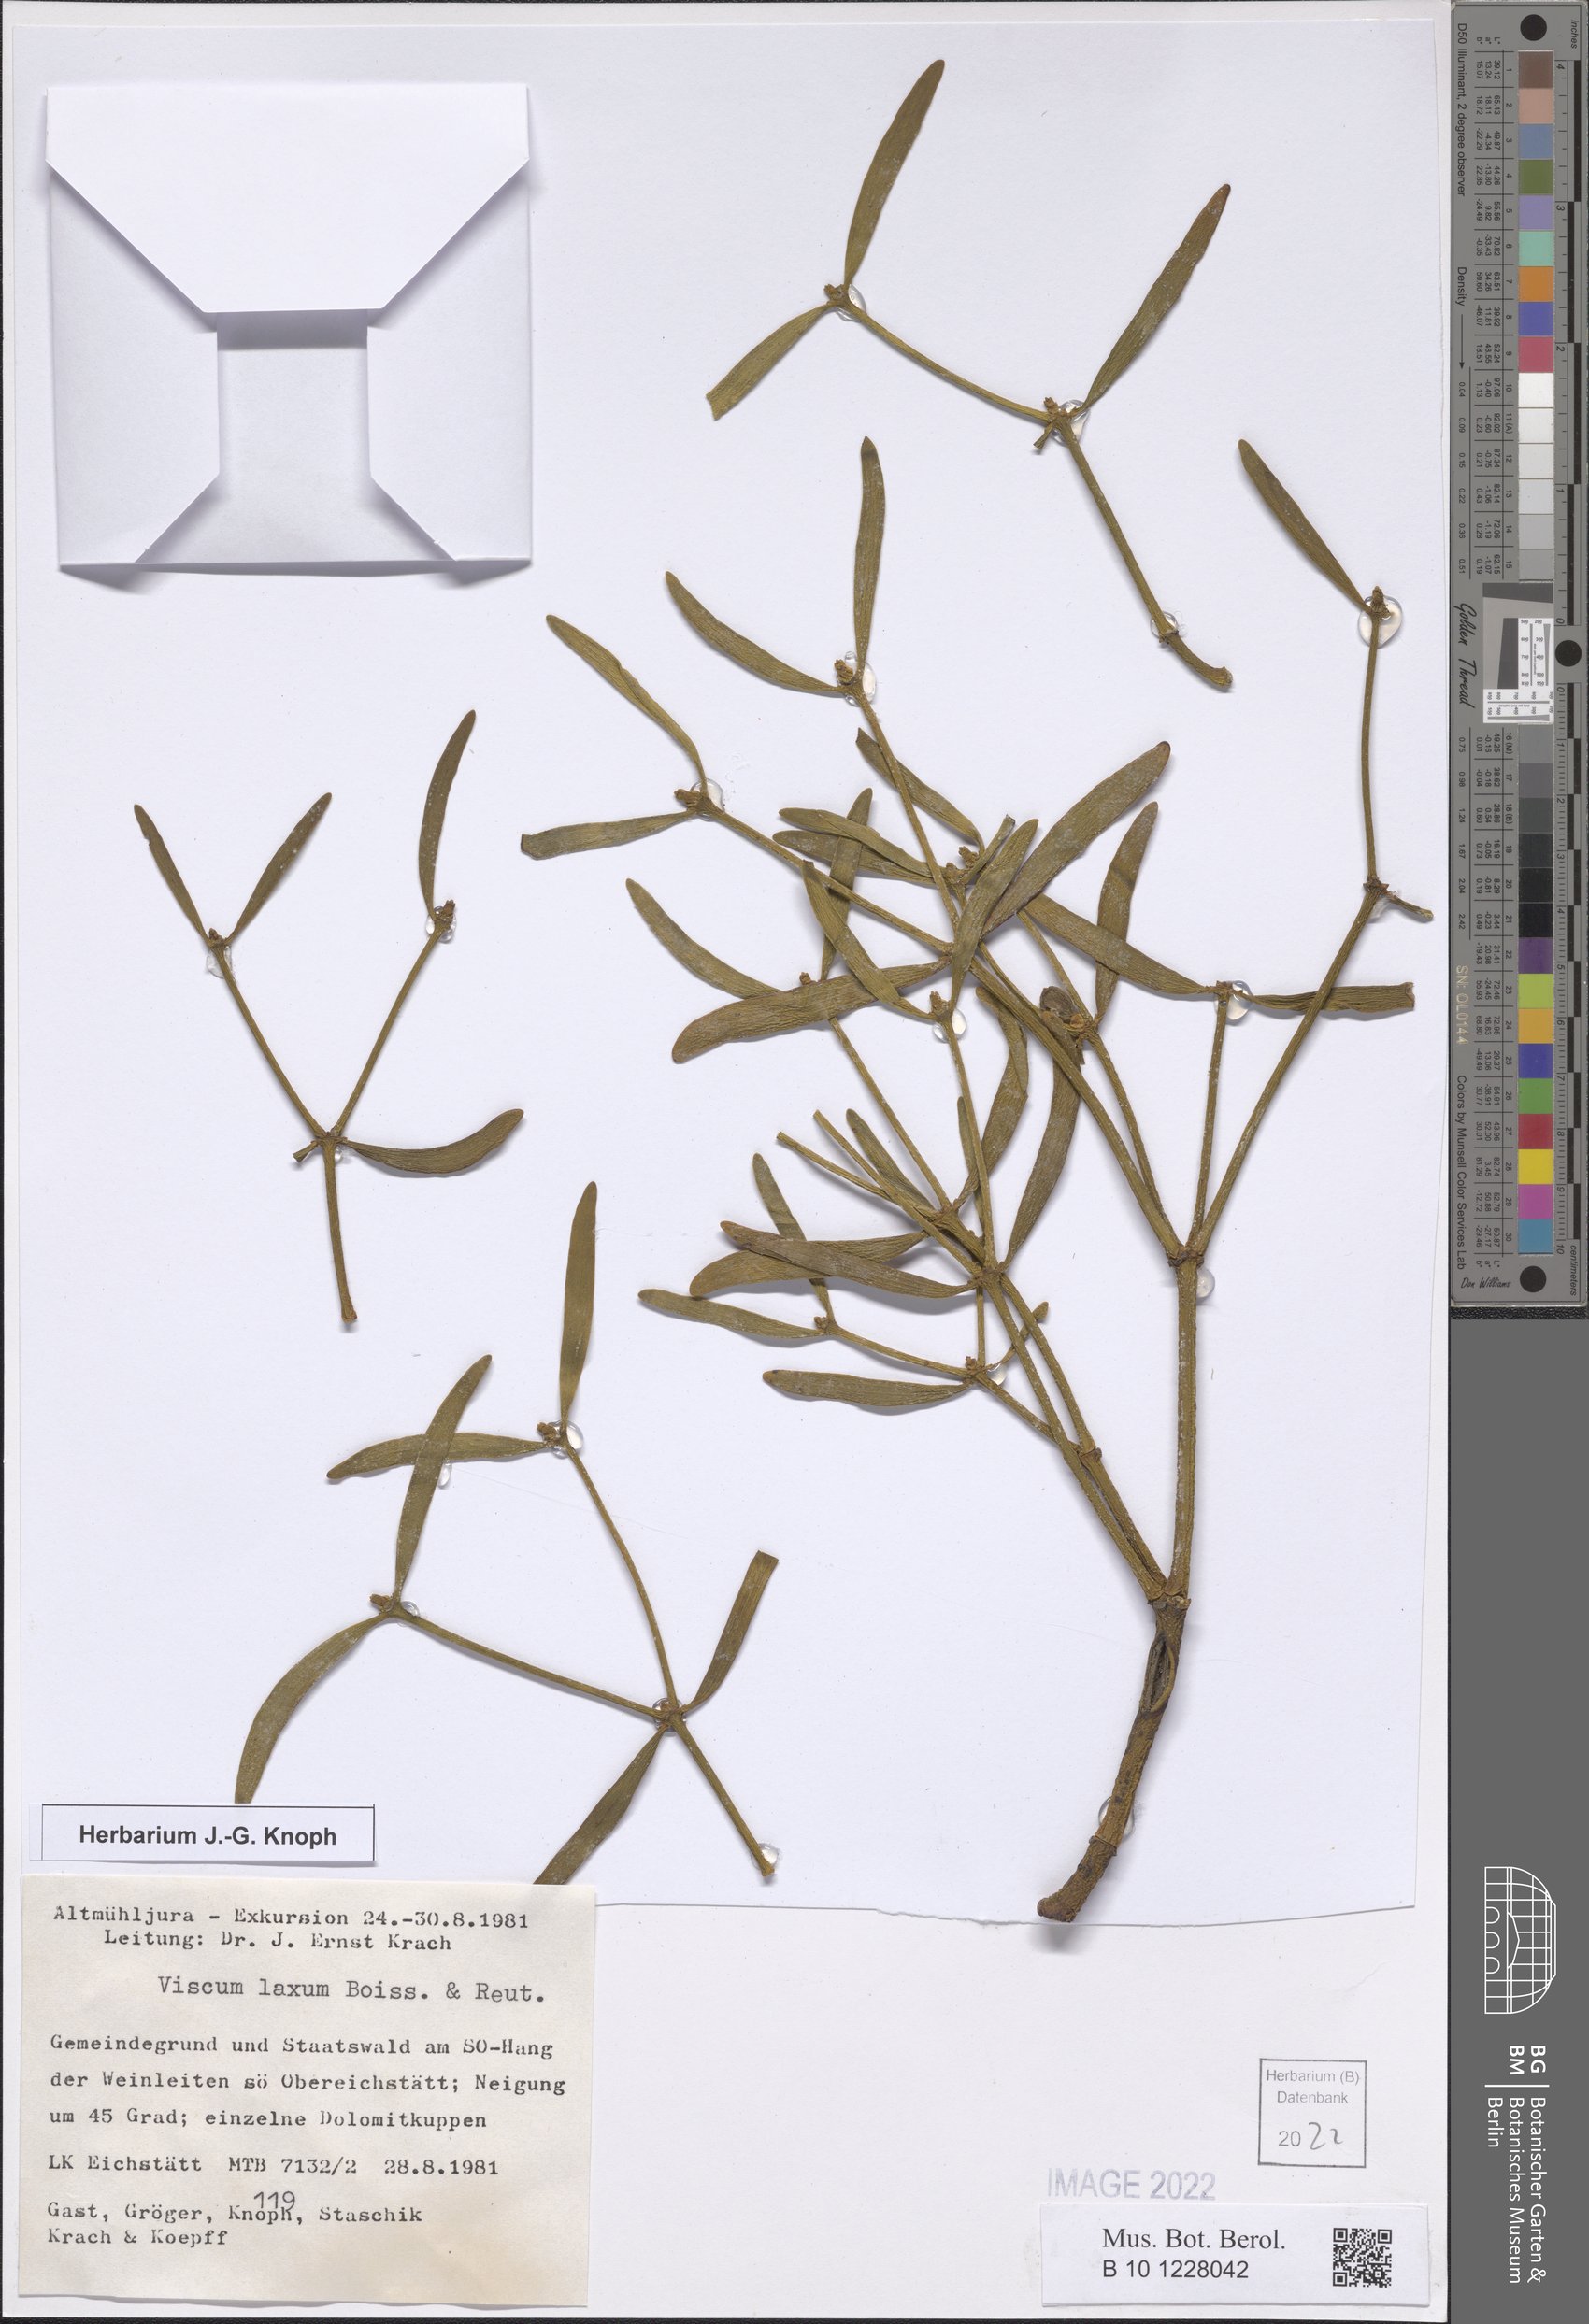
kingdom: Plantae
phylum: Tracheophyta
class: Magnoliopsida
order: Santalales
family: Viscaceae
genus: Viscum
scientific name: Viscum laxum
